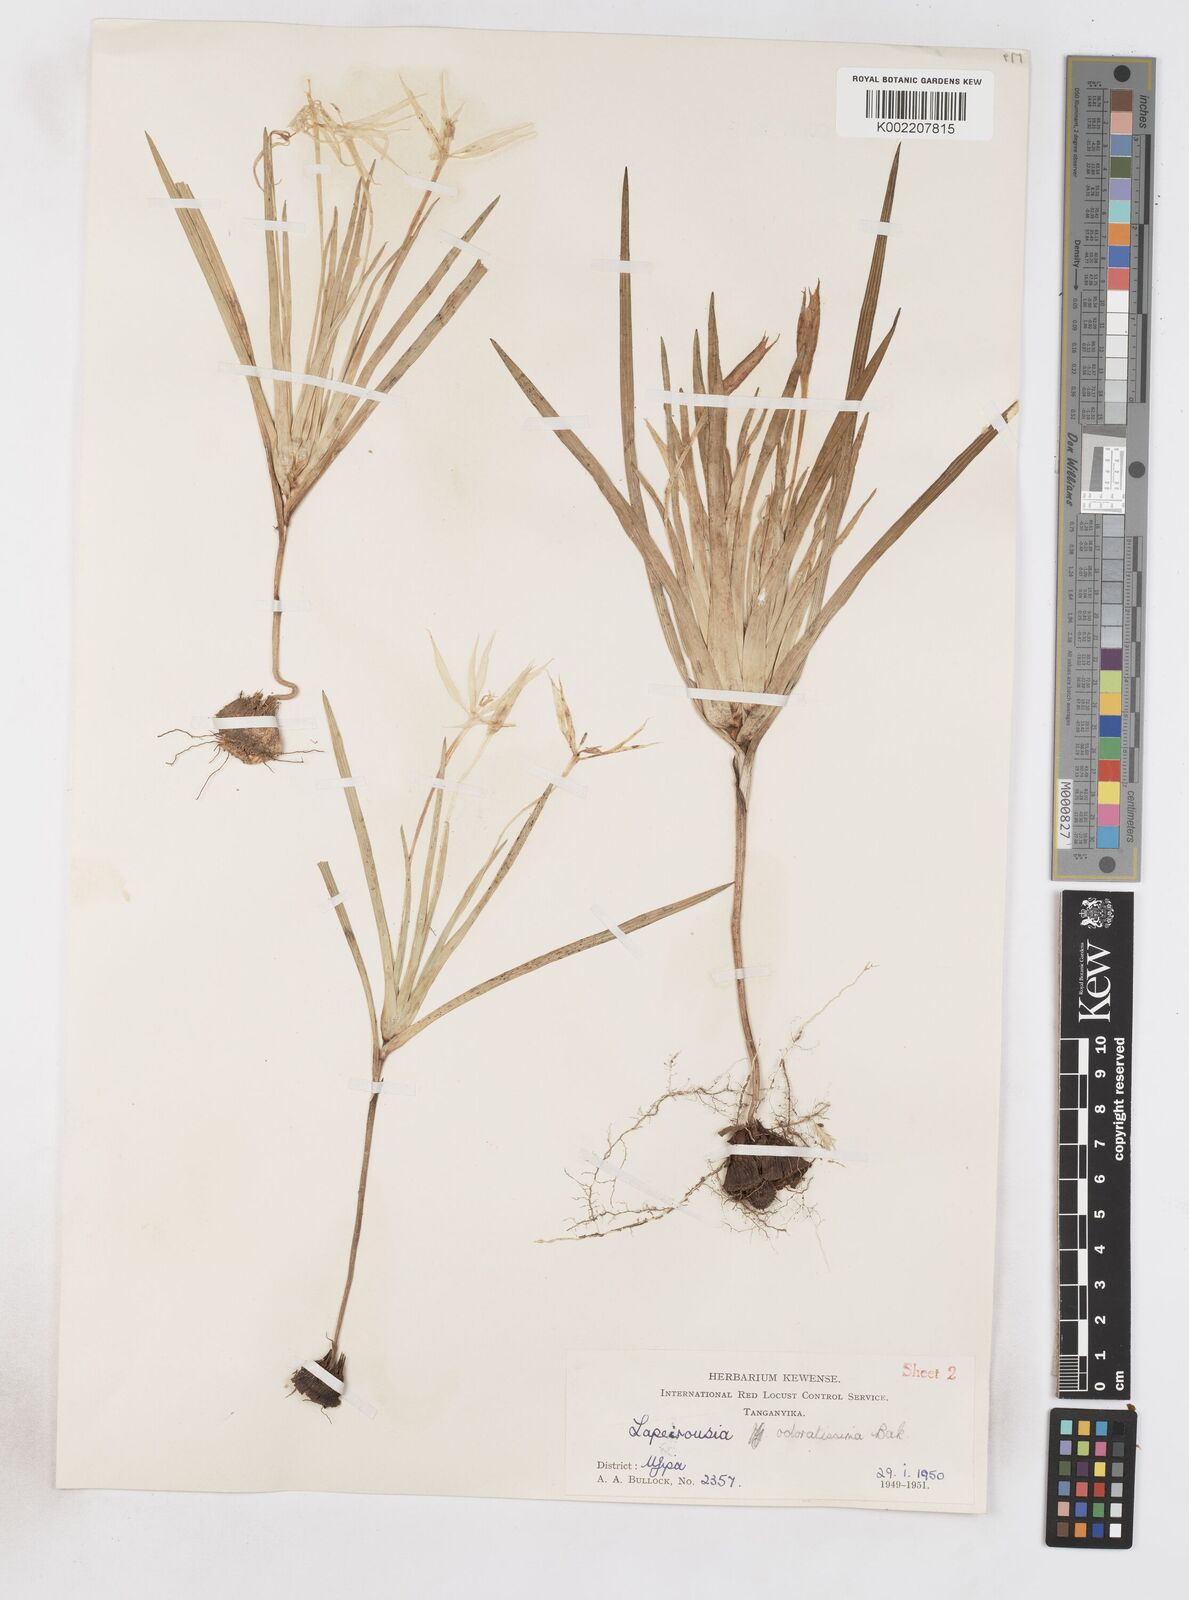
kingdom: Plantae
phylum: Tracheophyta
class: Liliopsida
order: Asparagales
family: Iridaceae
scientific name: Iridaceae
